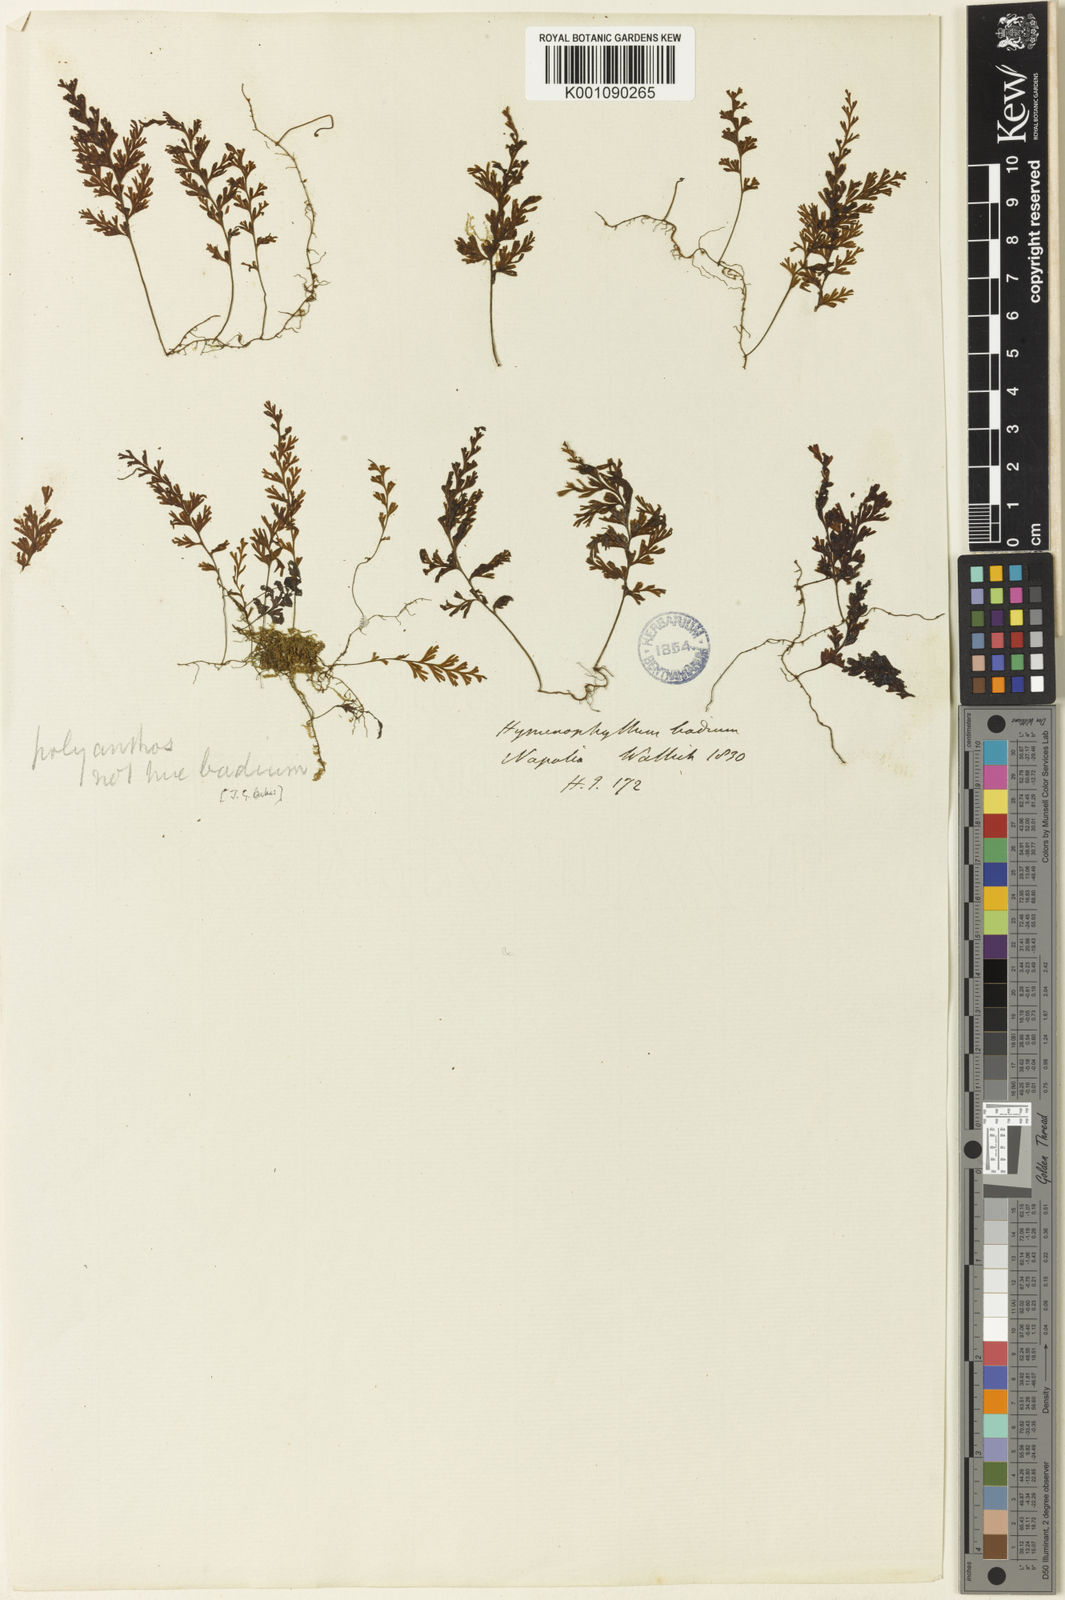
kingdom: Plantae
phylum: Tracheophyta
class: Polypodiopsida
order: Hymenophyllales
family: Hymenophyllaceae
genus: Hymenophyllum
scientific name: Hymenophyllum polyanthos
